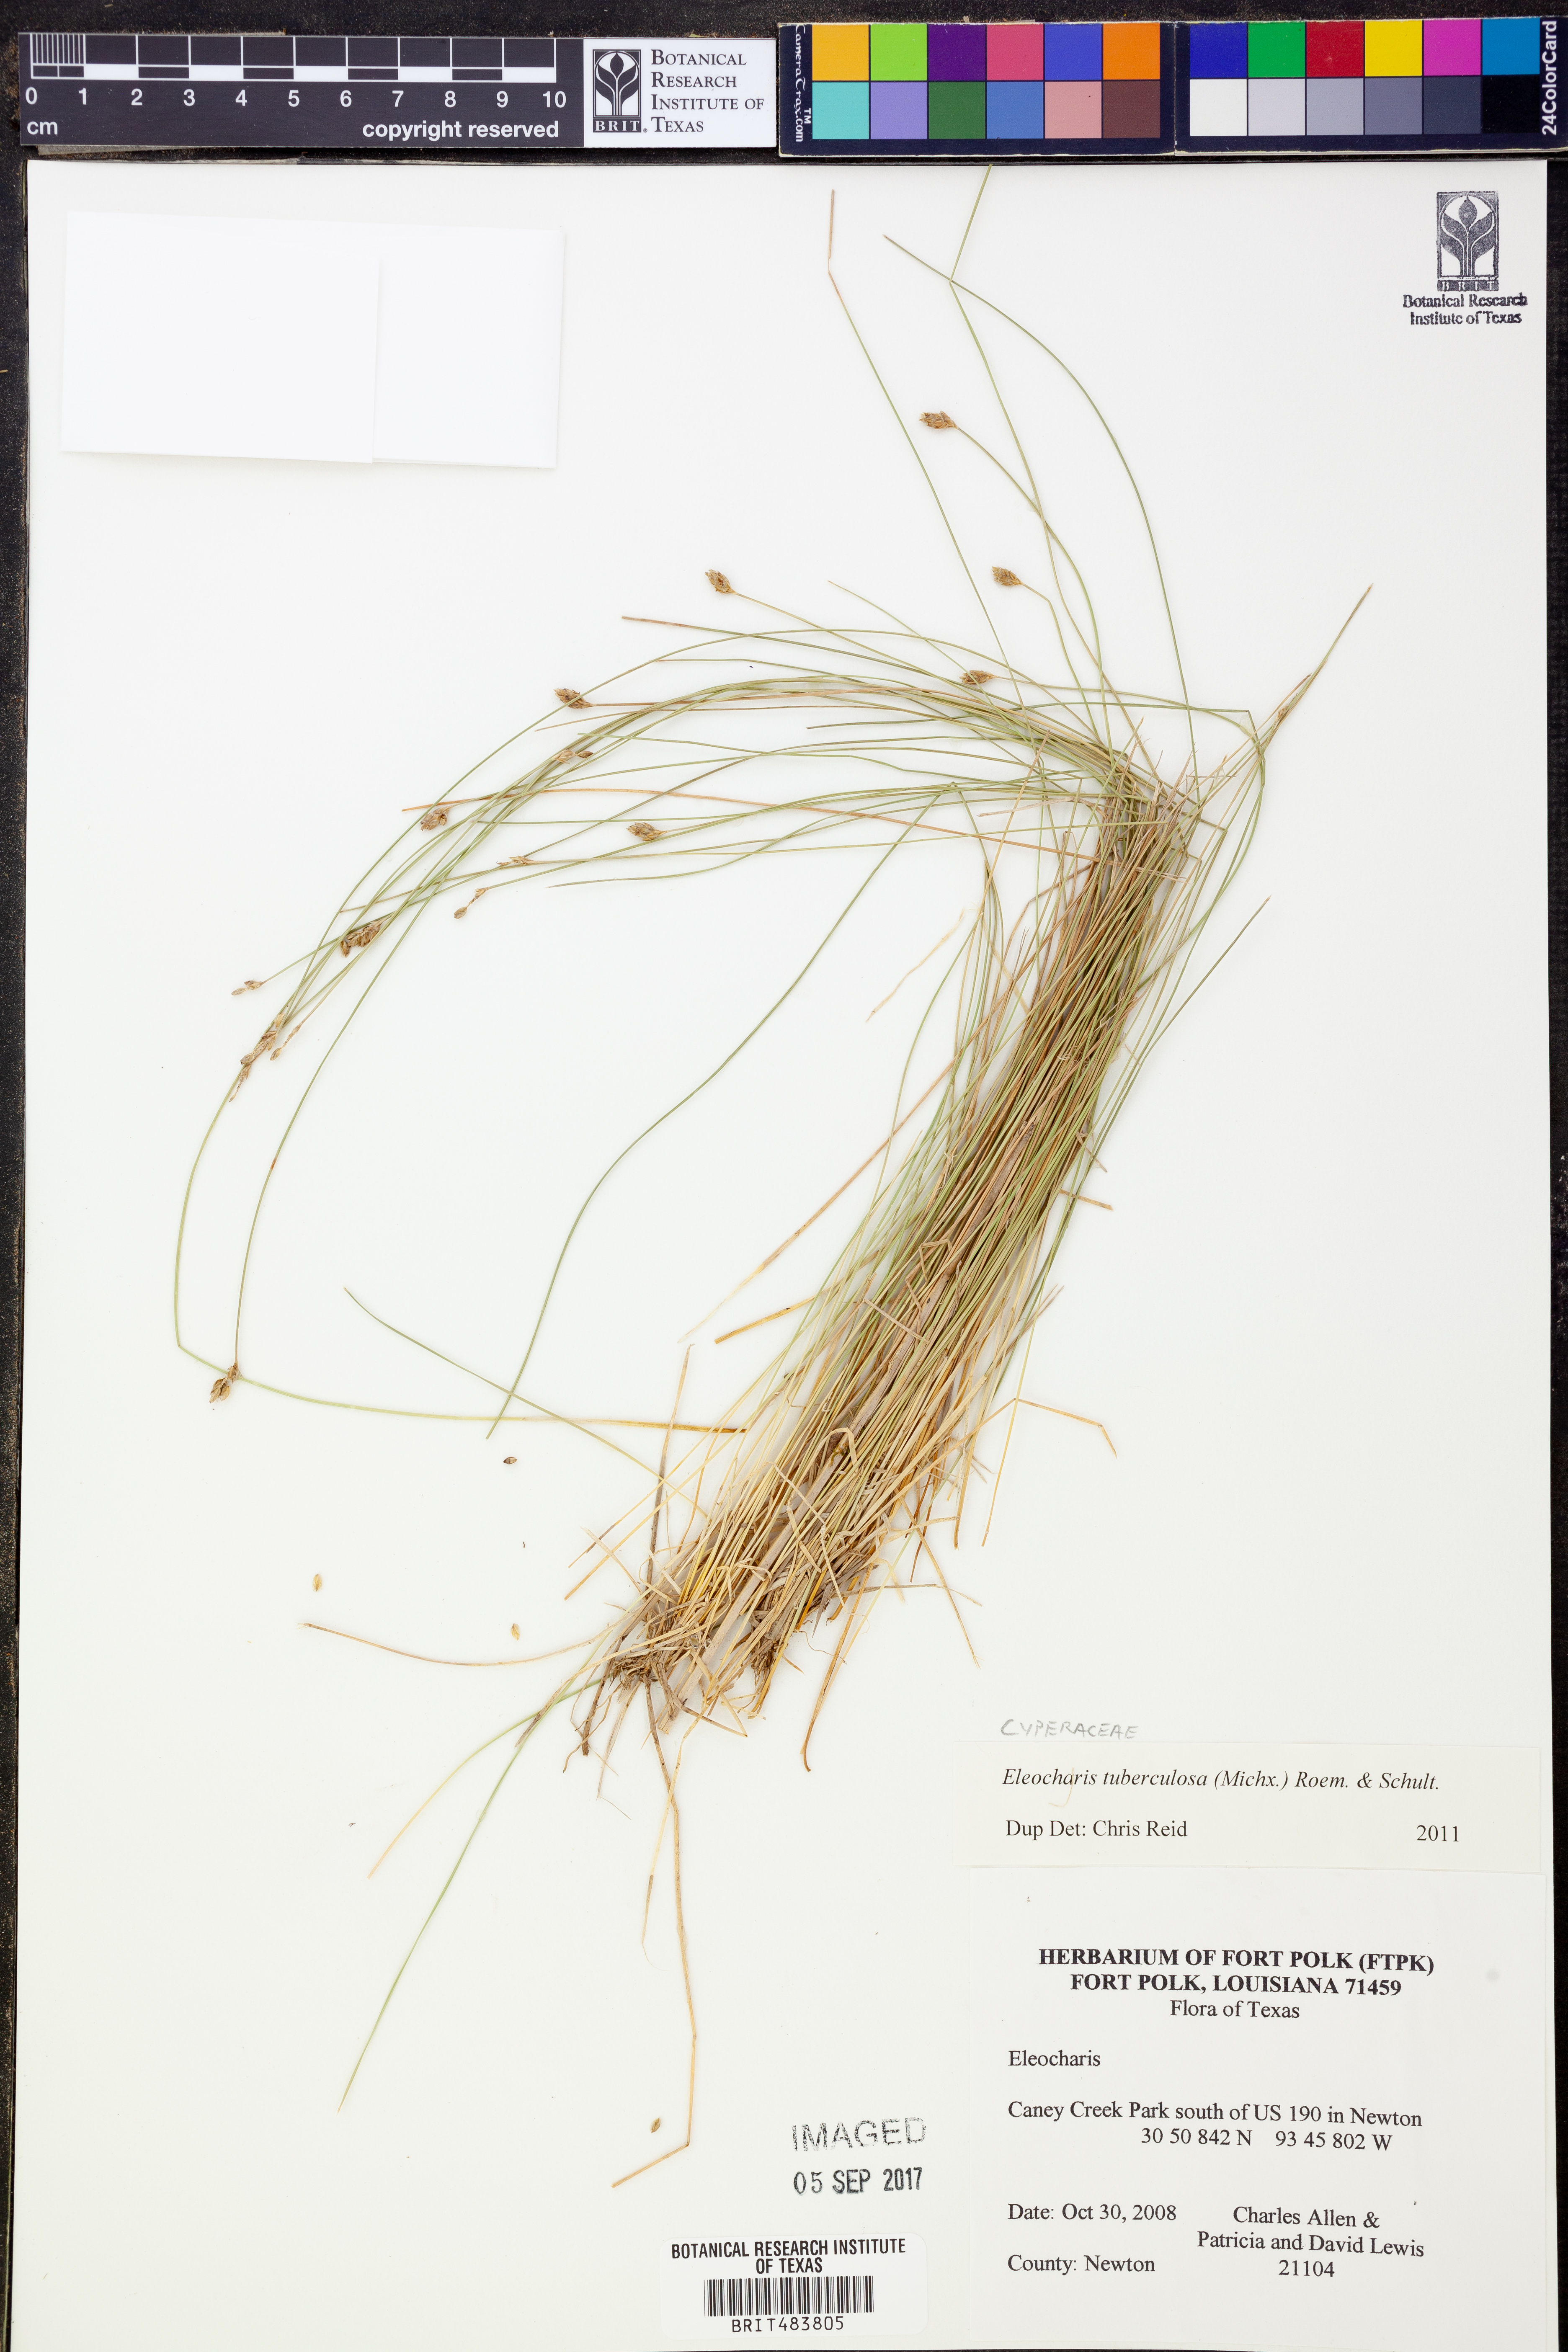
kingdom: Plantae
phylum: Tracheophyta
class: Liliopsida
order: Poales
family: Cyperaceae
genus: Eleocharis
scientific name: Eleocharis tuberculosa
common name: Cone-cup spikerush
